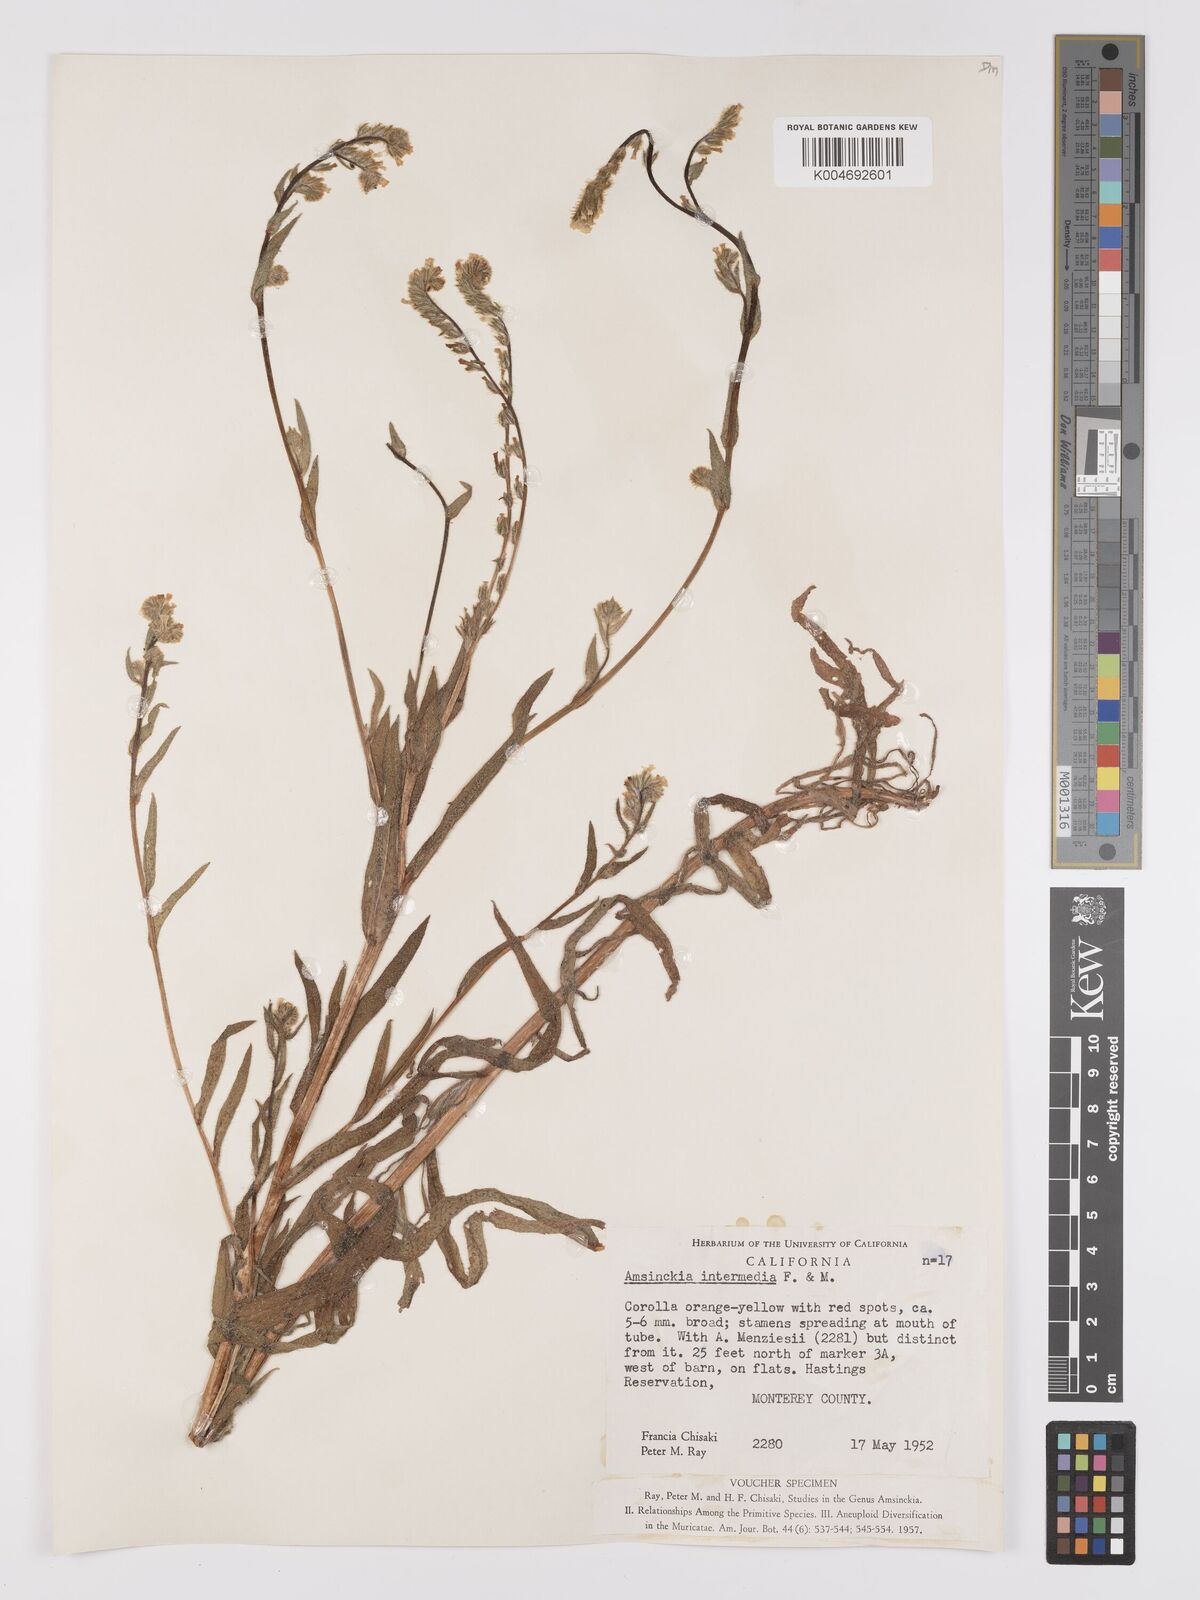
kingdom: Plantae
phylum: Tracheophyta
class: Magnoliopsida
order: Boraginales
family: Boraginaceae
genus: Amsinckia
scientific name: Amsinckia menziesii
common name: Menzies' fiddleneck
